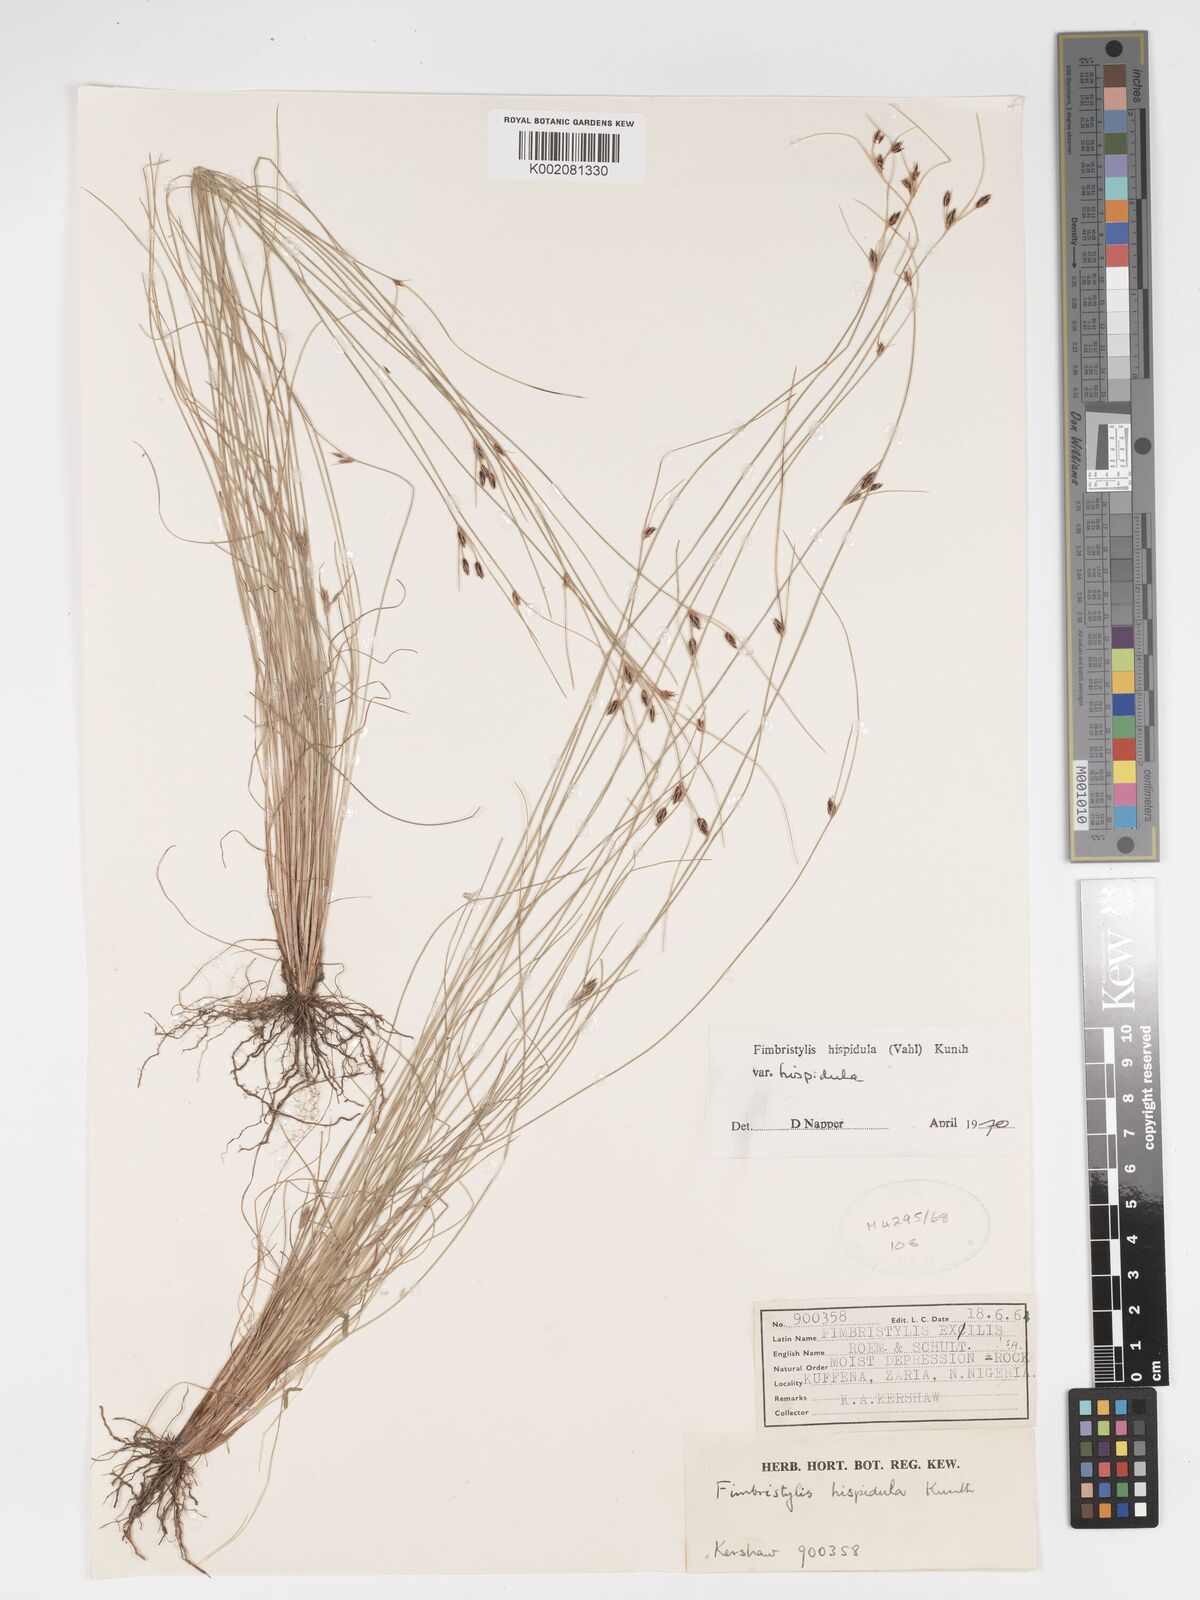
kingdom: Plantae
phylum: Tracheophyta
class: Liliopsida
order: Poales
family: Cyperaceae
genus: Bulbostylis
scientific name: Bulbostylis hispidula
